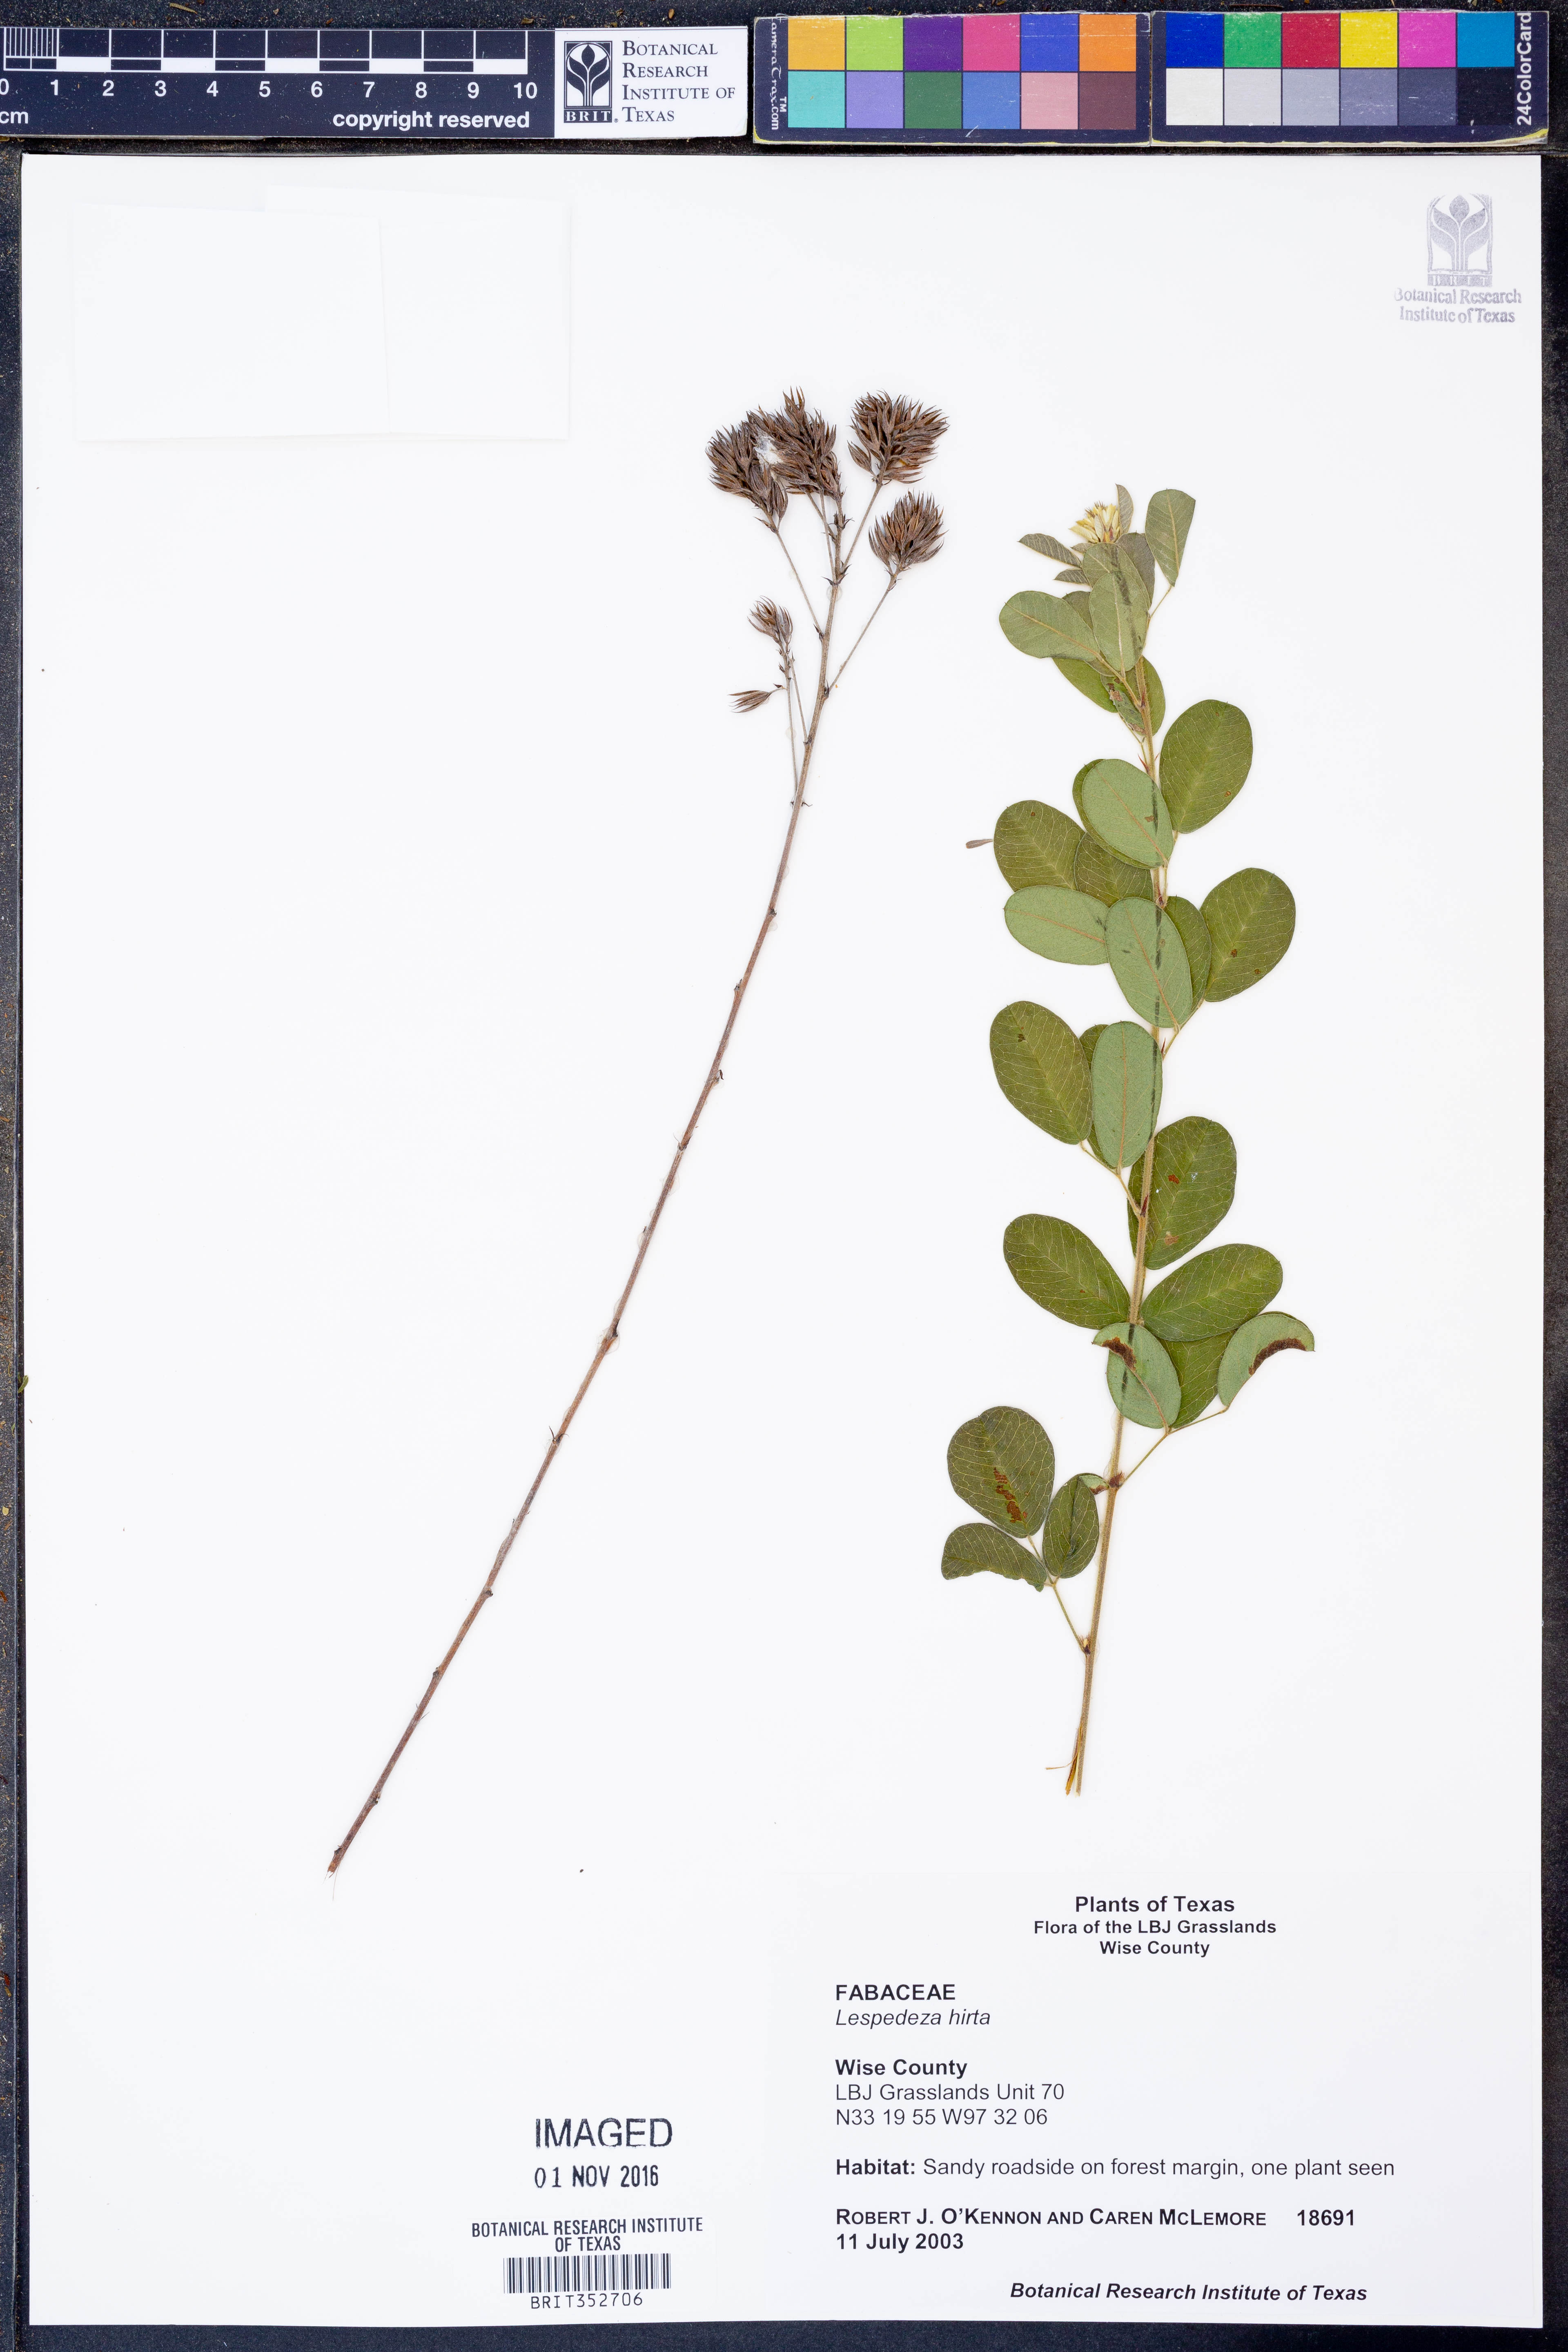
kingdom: Plantae
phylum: Tracheophyta
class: Magnoliopsida
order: Fabales
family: Fabaceae
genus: Lespedeza
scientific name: Lespedeza hirta
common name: Hairy lespedeza
